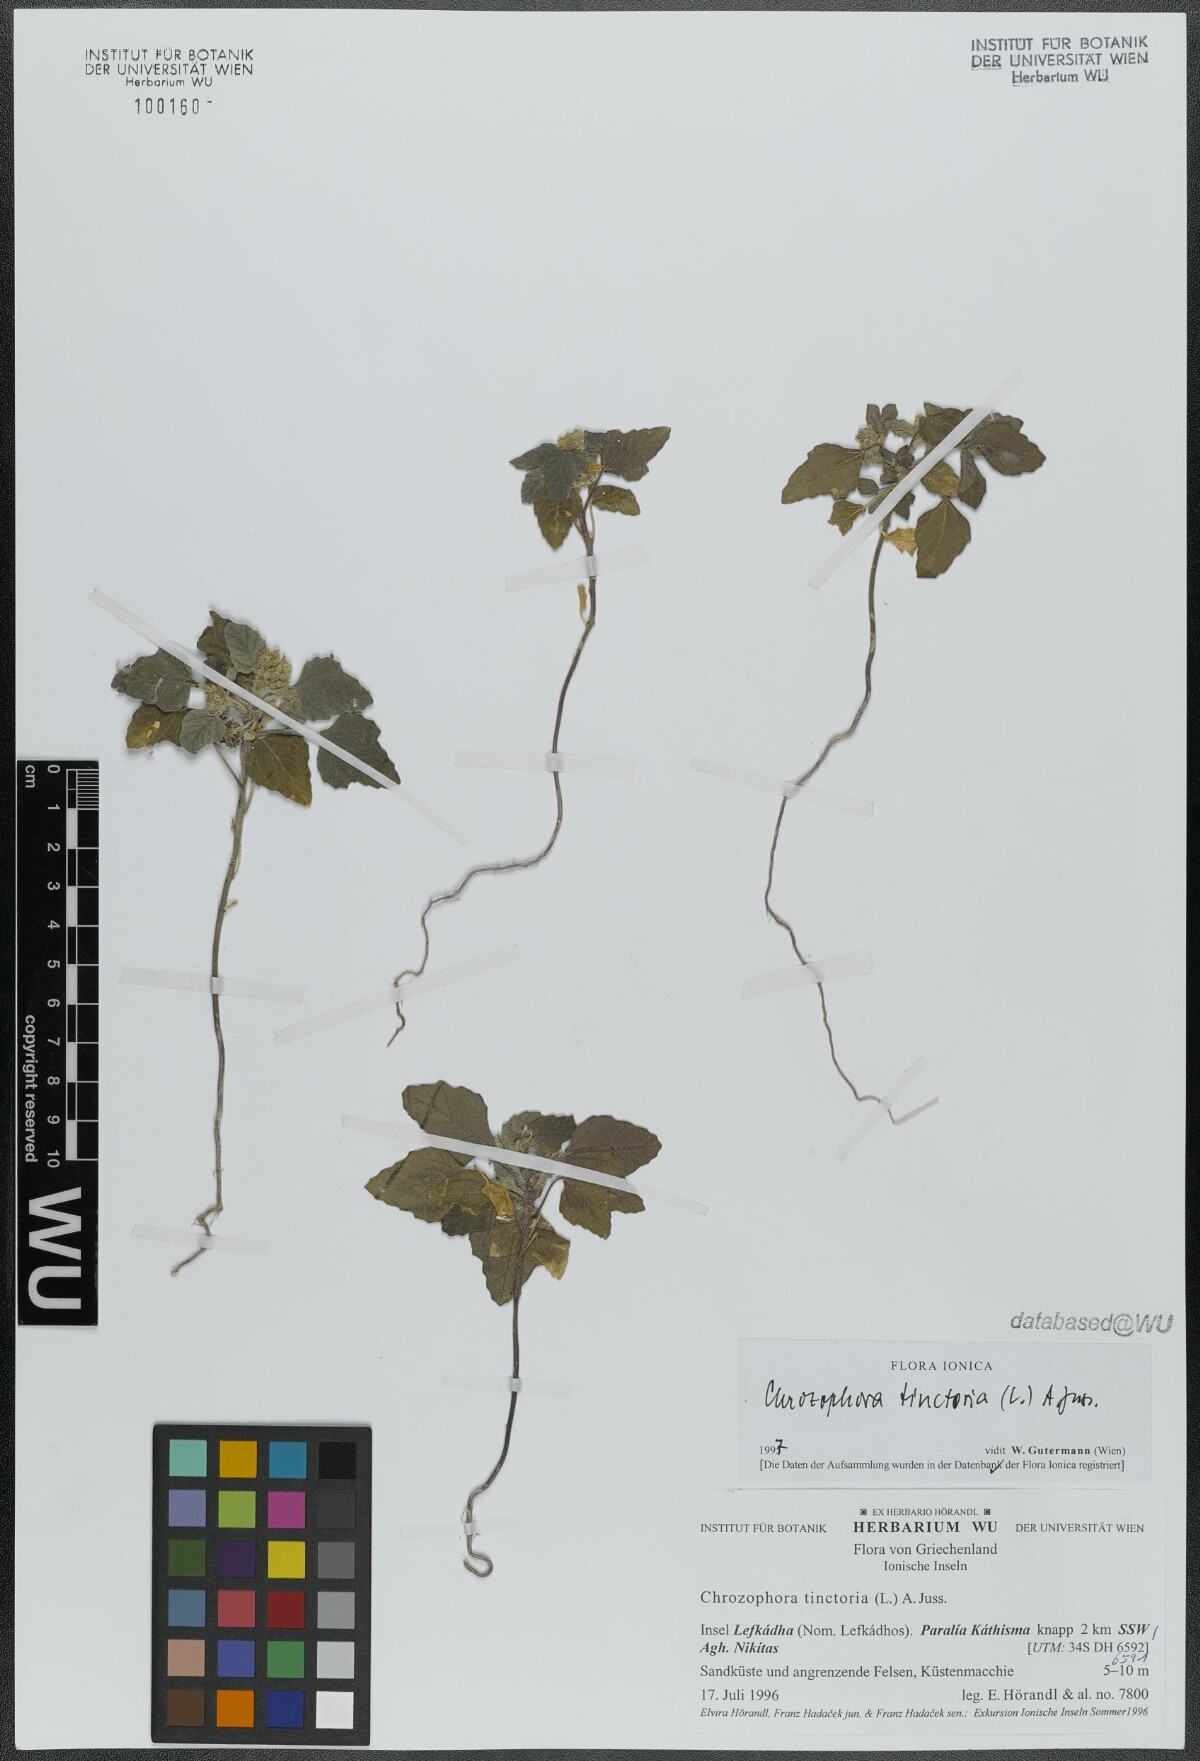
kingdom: Plantae
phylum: Tracheophyta
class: Magnoliopsida
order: Malpighiales
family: Euphorbiaceae
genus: Chrozophora
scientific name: Chrozophora tinctoria
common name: Dyer's litmus
